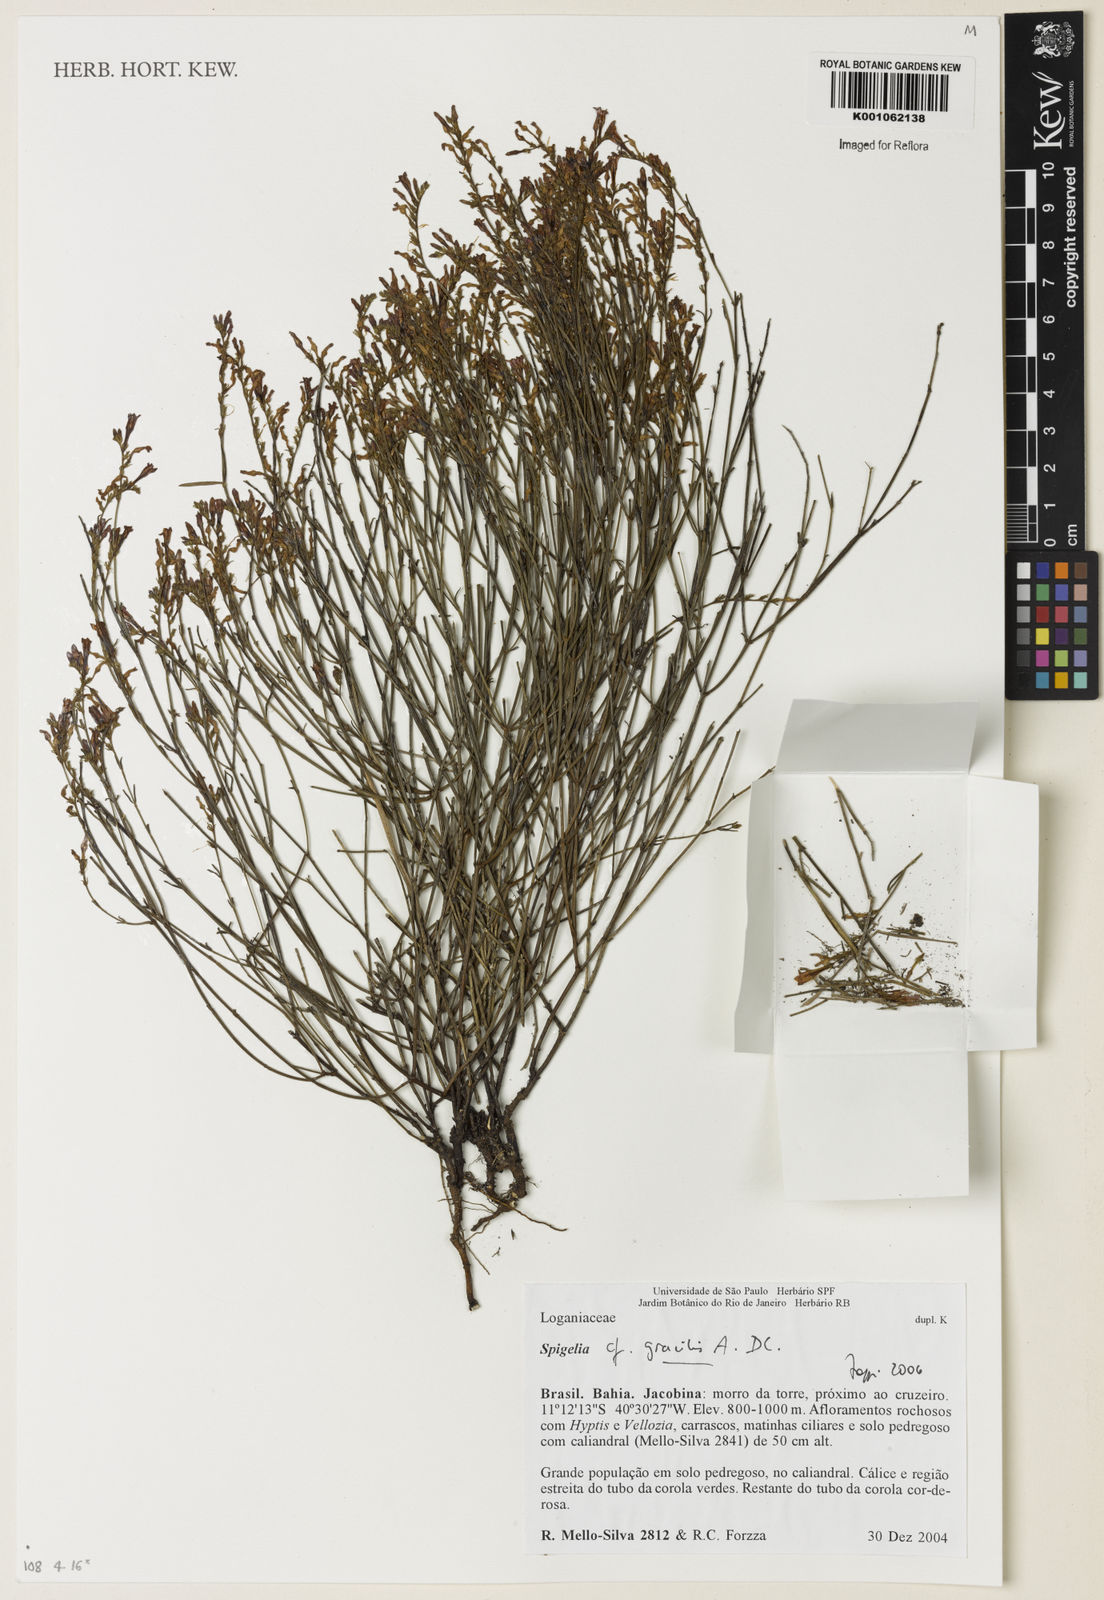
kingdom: Plantae
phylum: Tracheophyta
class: Magnoliopsida
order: Gentianales
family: Loganiaceae
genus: Spigelia
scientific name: Spigelia
